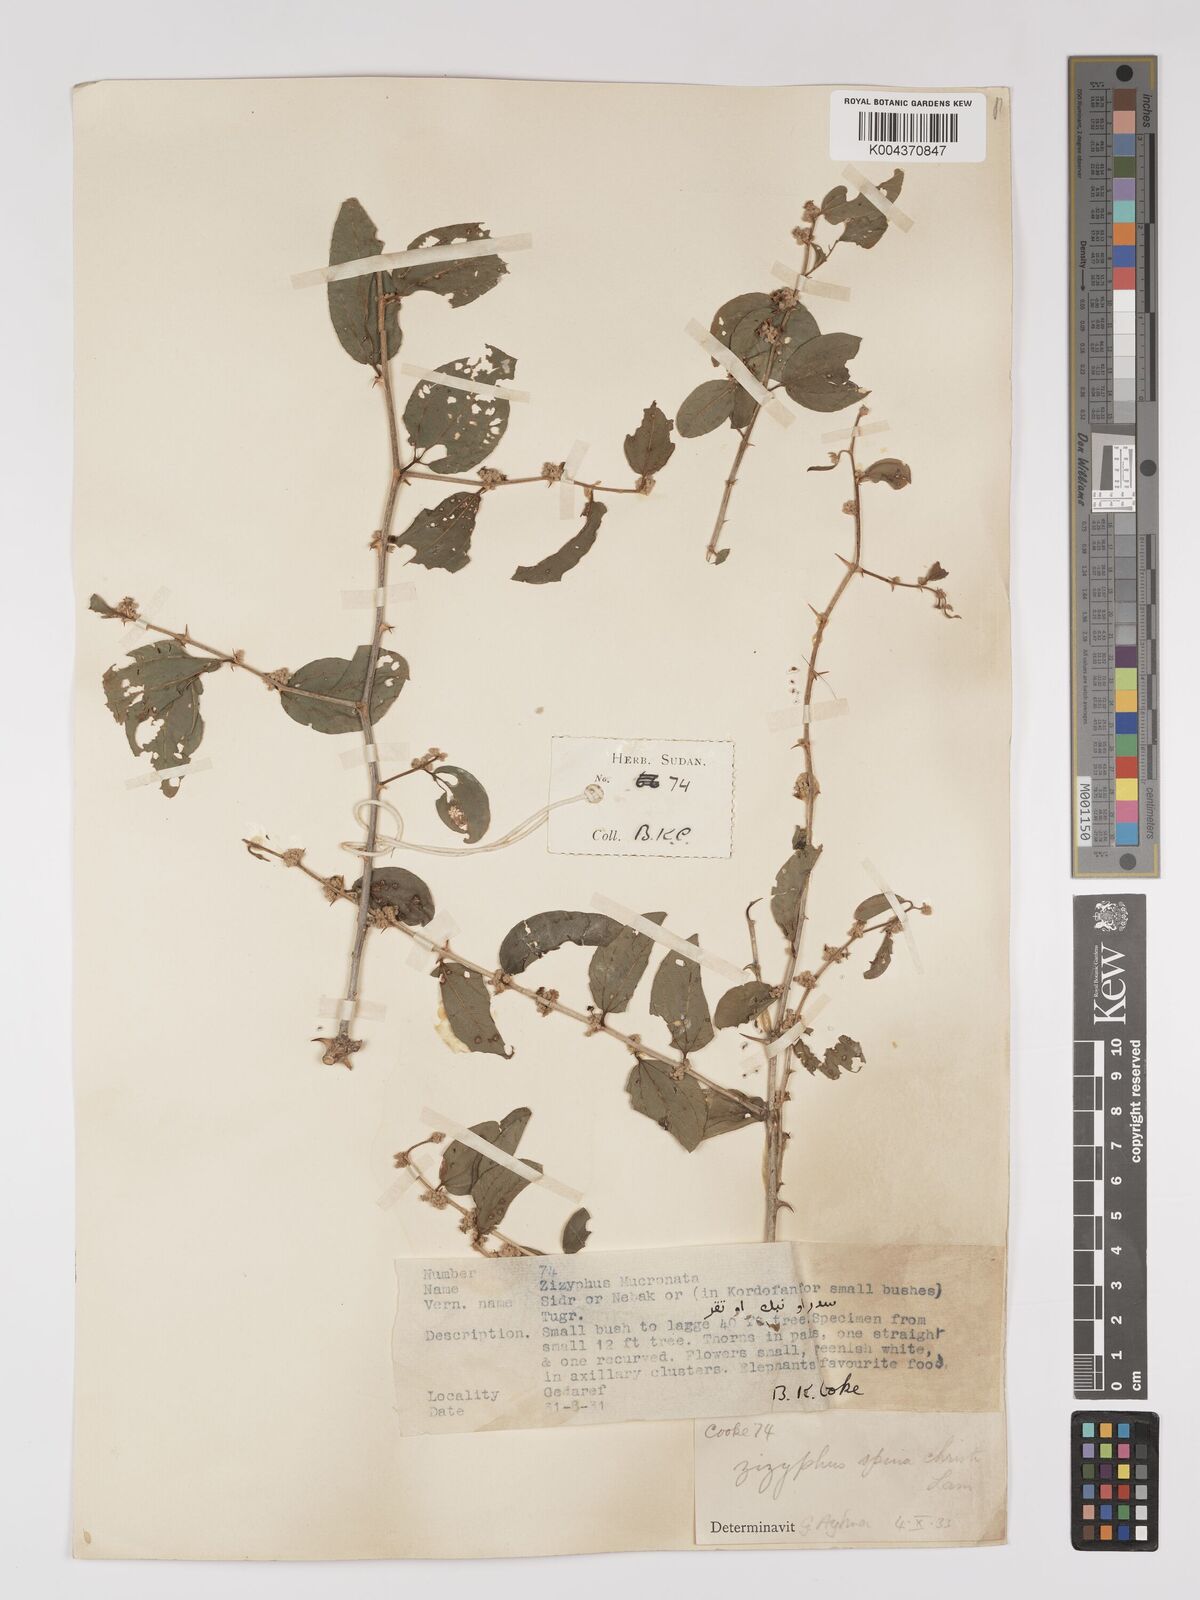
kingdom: Plantae
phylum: Tracheophyta
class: Magnoliopsida
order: Rosales
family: Rhamnaceae
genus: Ziziphus
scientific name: Ziziphus spina-christi
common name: Syrian christ-thorn
